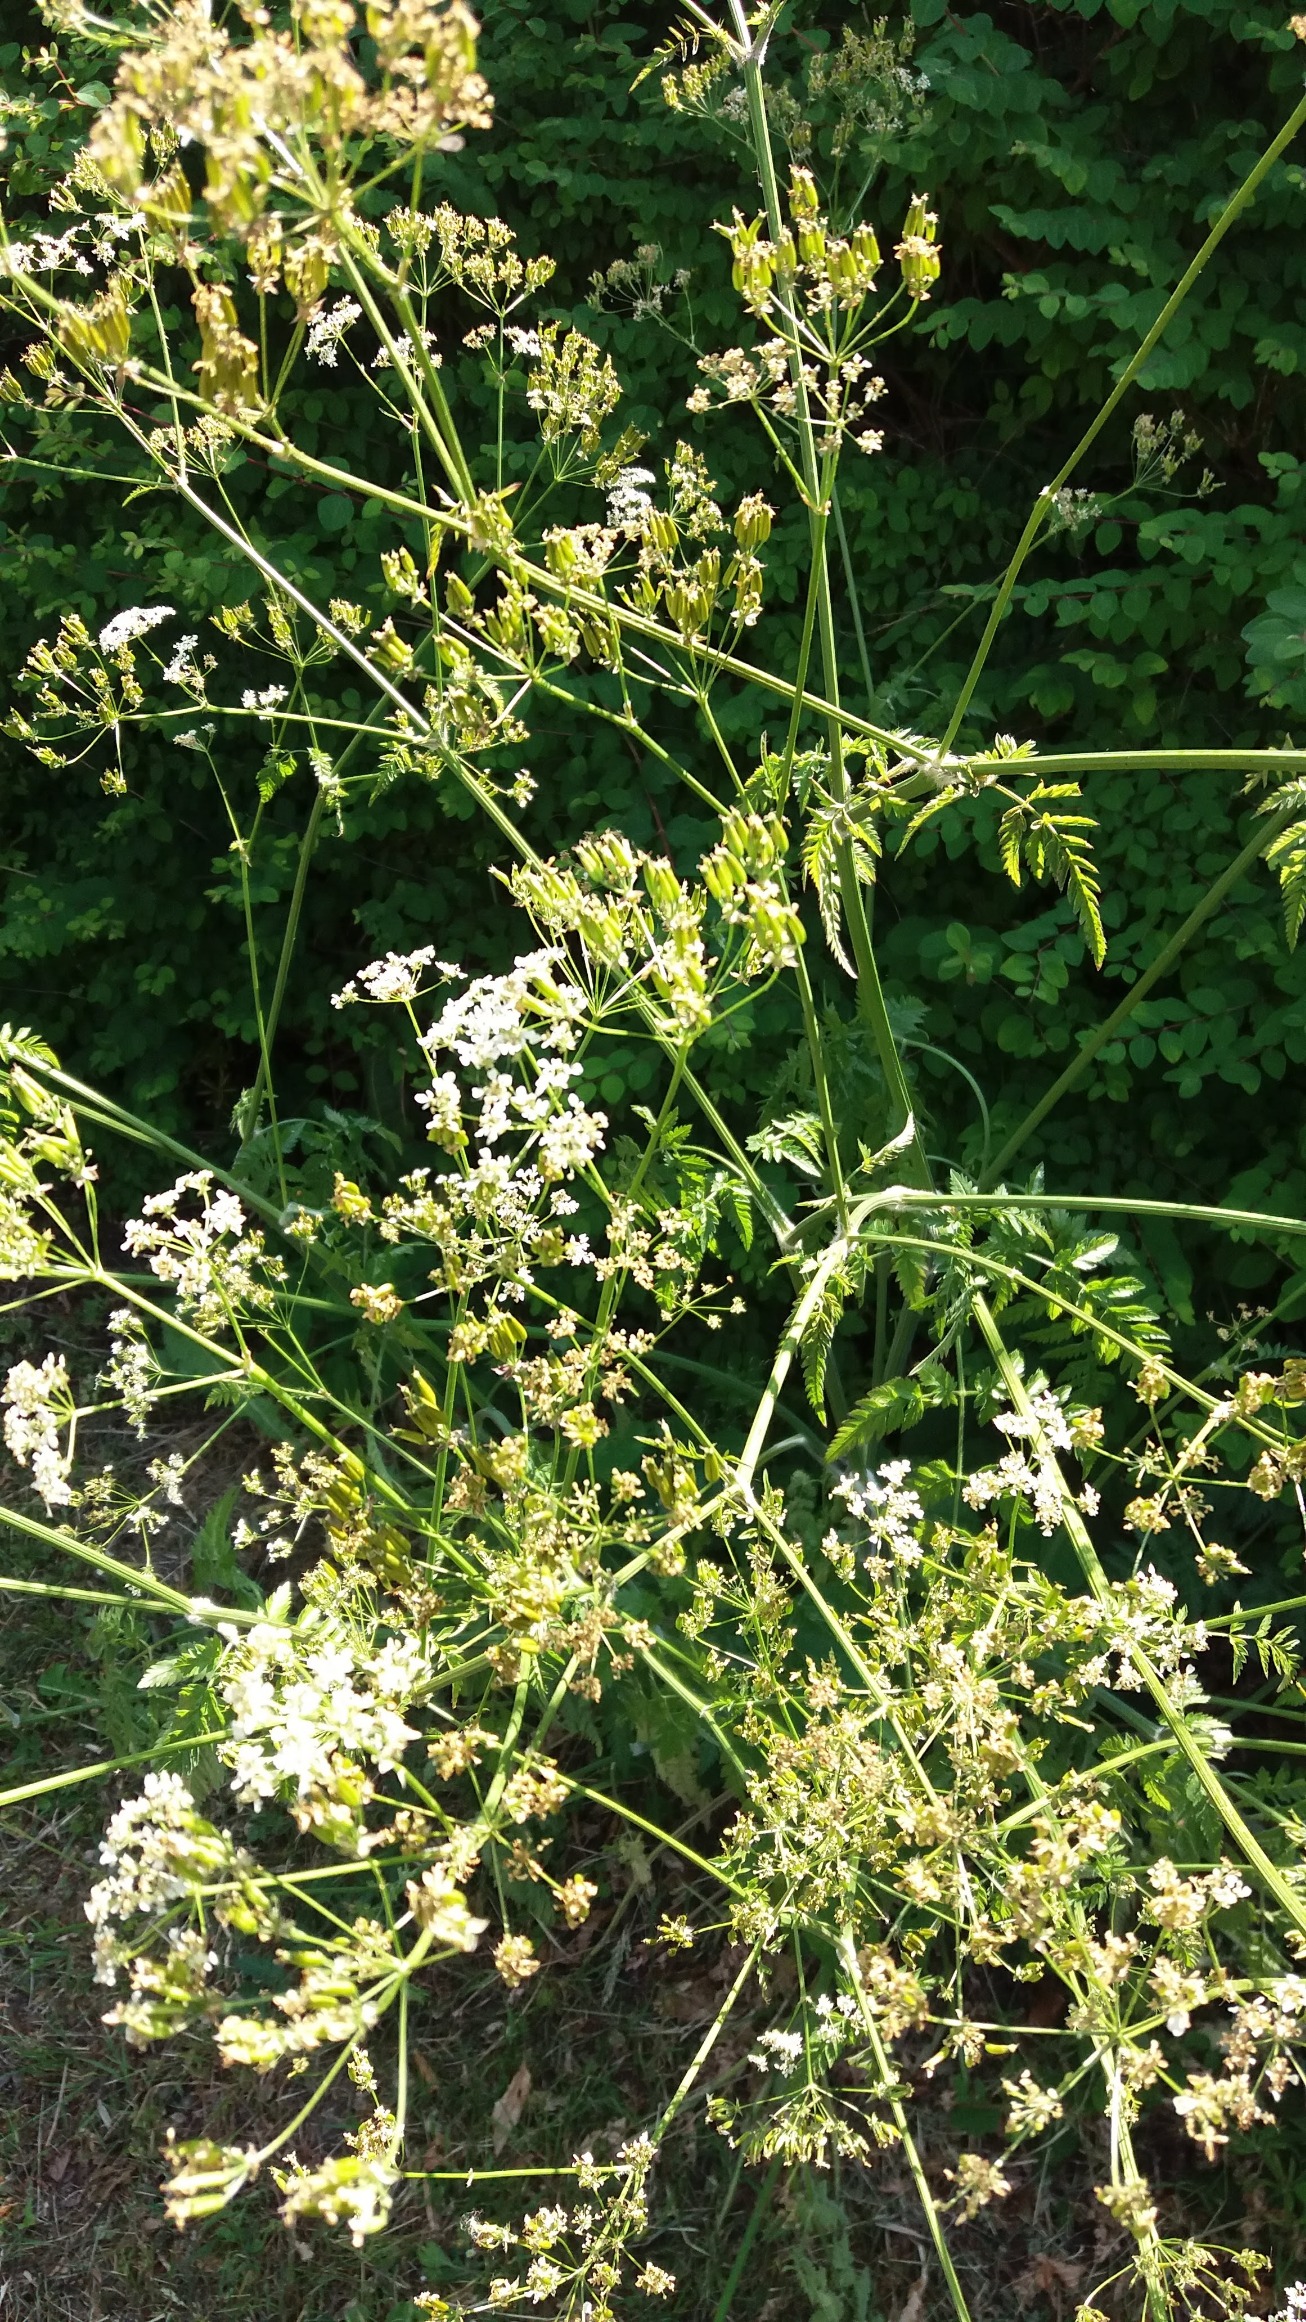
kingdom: Plantae
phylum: Tracheophyta
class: Magnoliopsida
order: Apiales
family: Apiaceae
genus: Anthriscus
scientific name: Anthriscus sylvestris
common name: Vild kørvel
